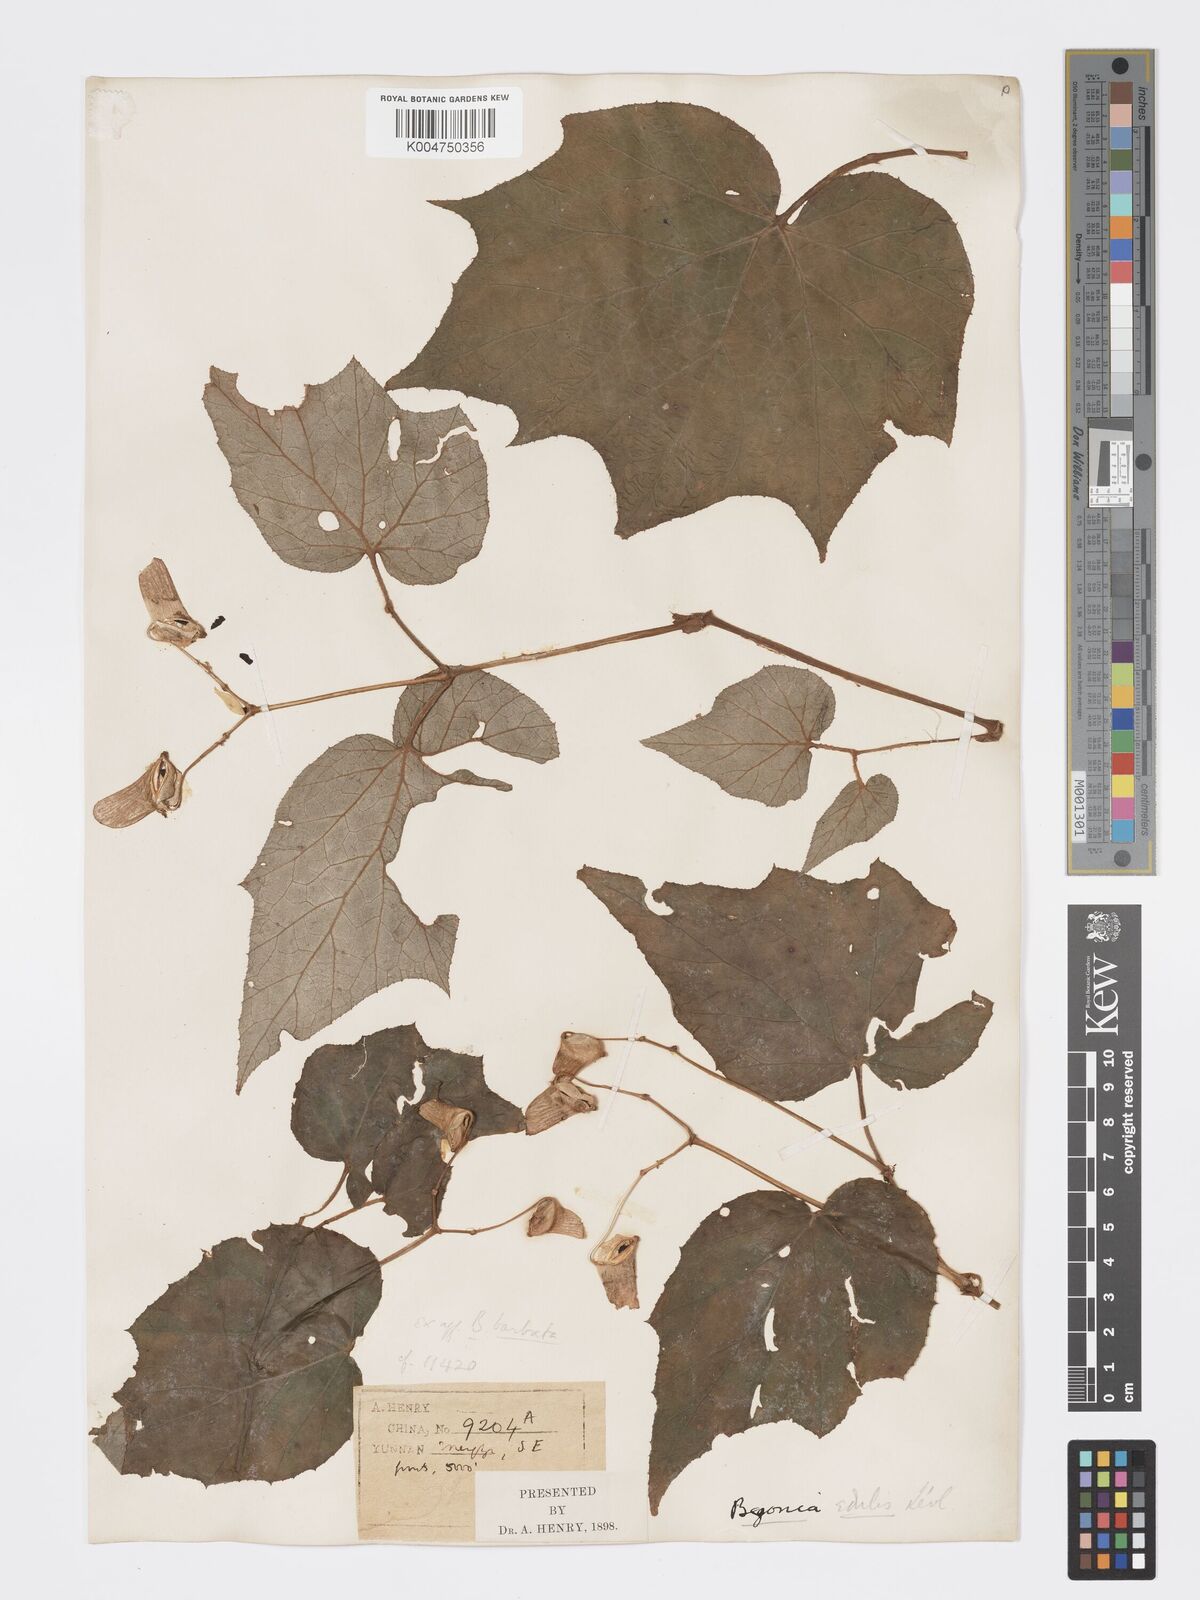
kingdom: Plantae
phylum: Tracheophyta
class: Magnoliopsida
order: Cucurbitales
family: Begoniaceae
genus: Begonia
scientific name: Begonia palmata
